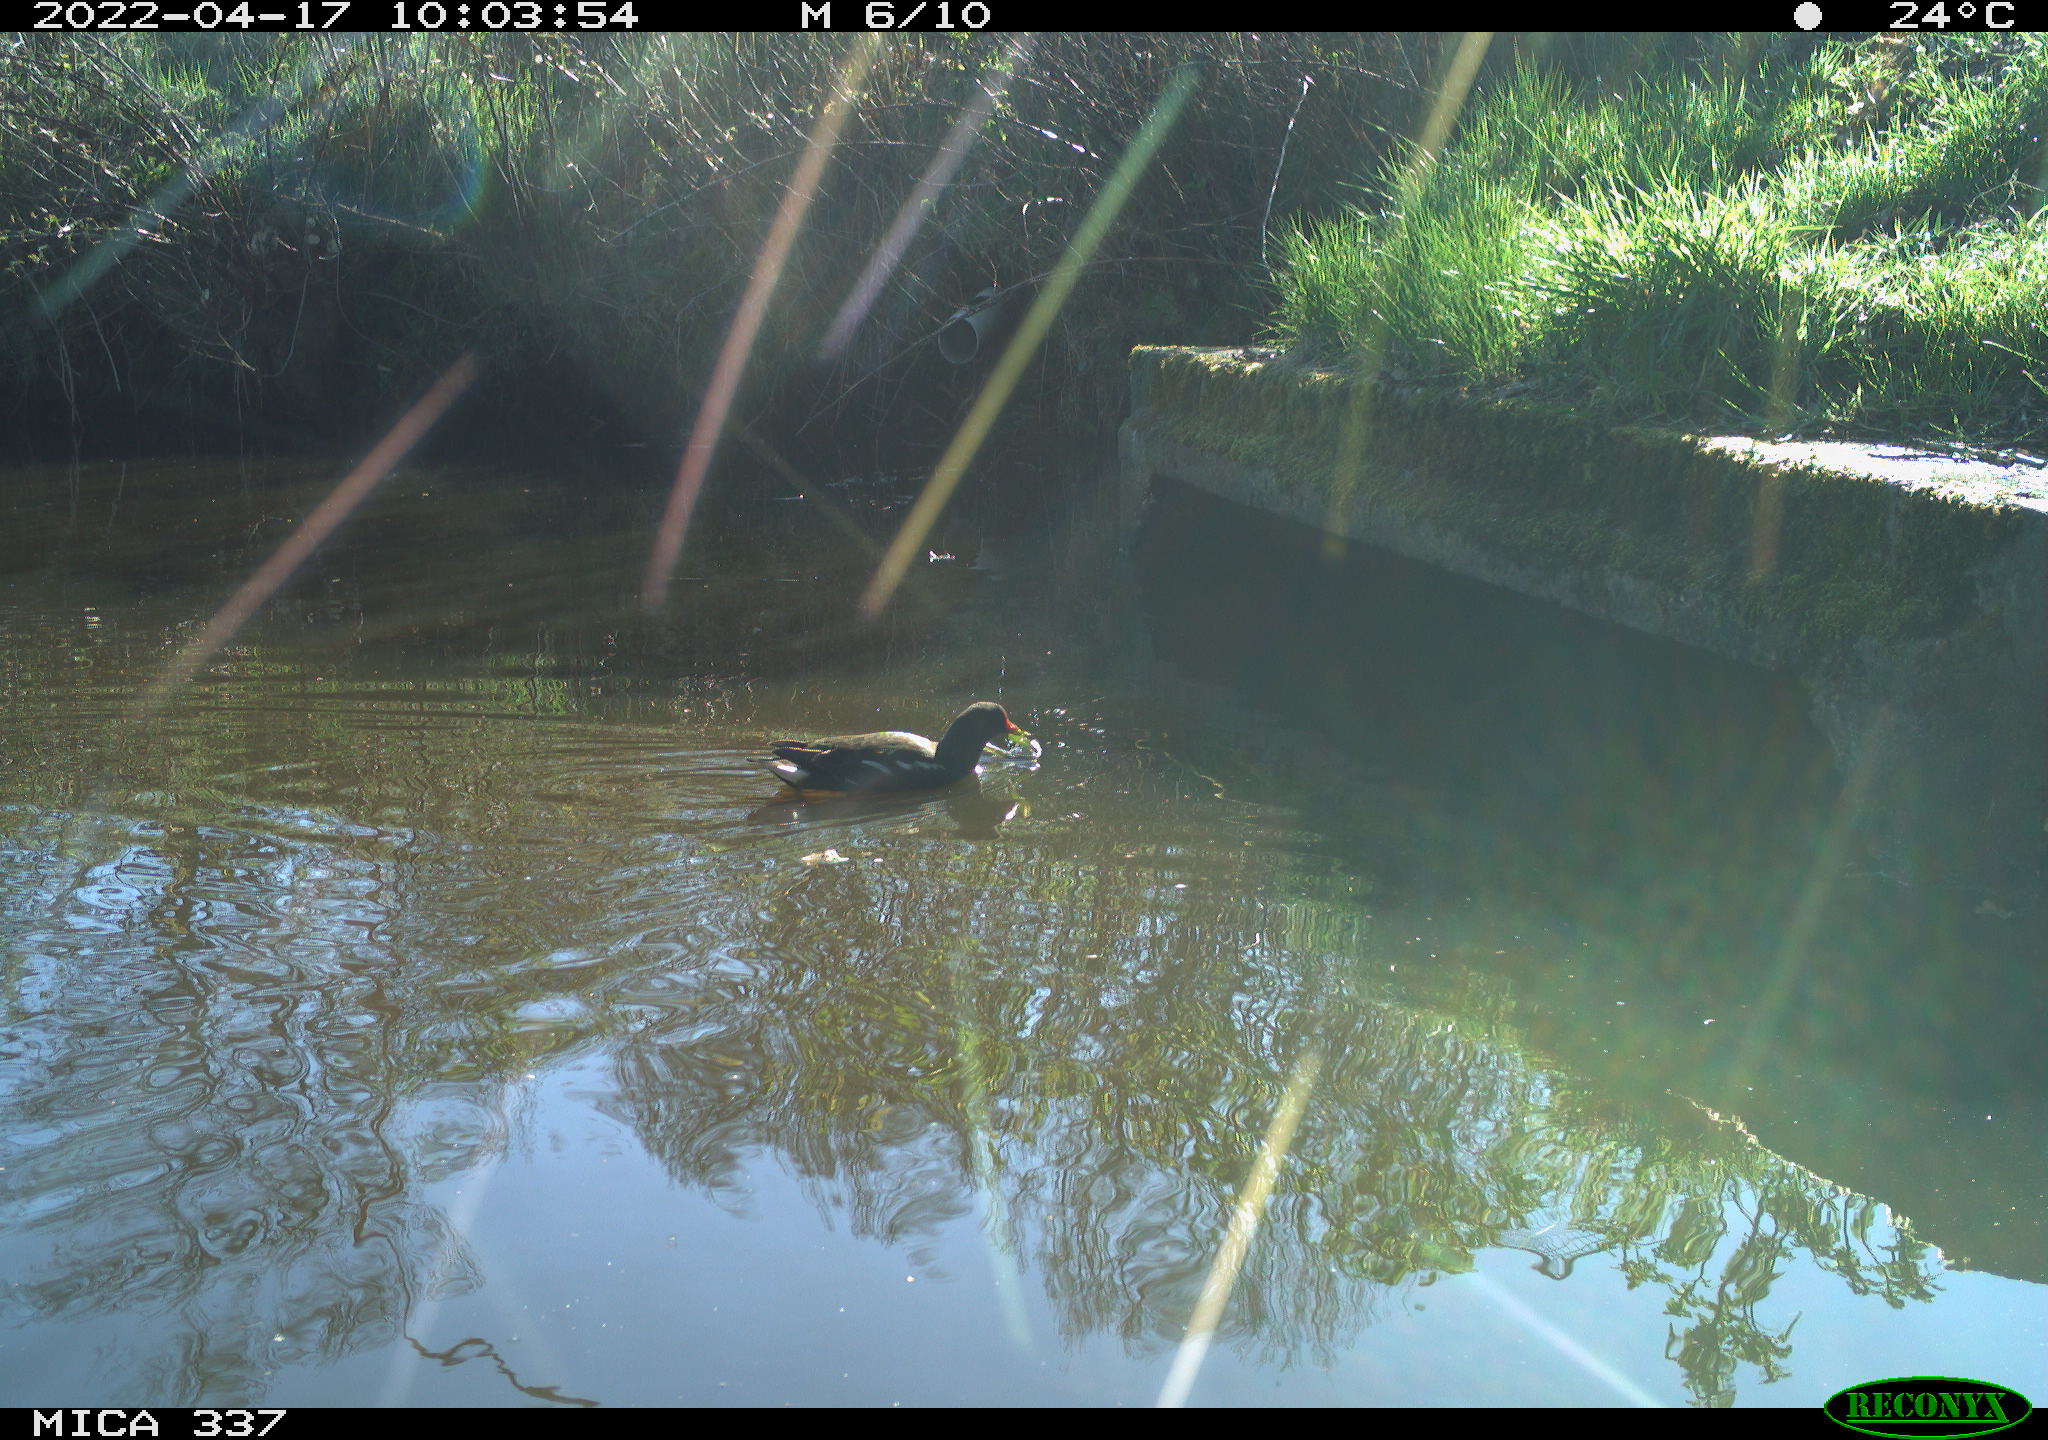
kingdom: Animalia
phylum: Chordata
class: Aves
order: Gruiformes
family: Rallidae
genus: Gallinula
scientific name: Gallinula chloropus
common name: Common moorhen
